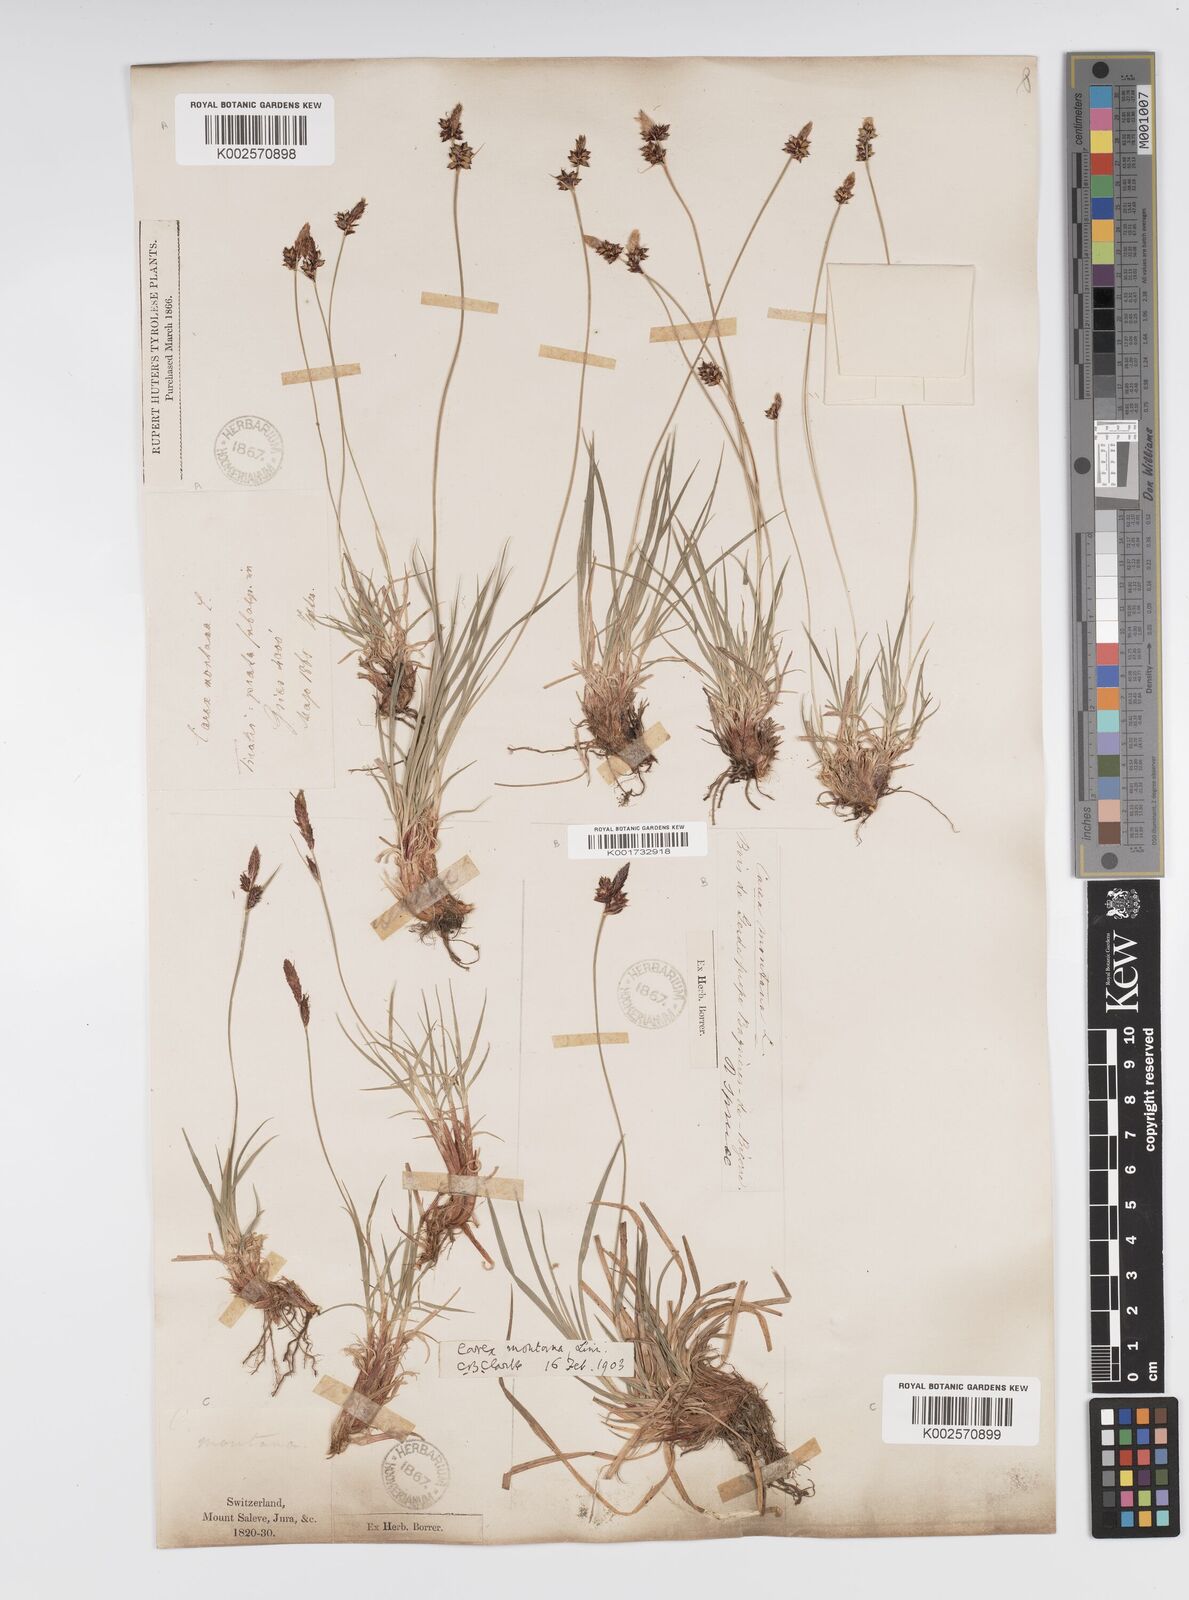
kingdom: Plantae
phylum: Tracheophyta
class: Liliopsida
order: Poales
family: Cyperaceae
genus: Carex
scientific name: Carex montana
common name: Soft-leaved sedge
